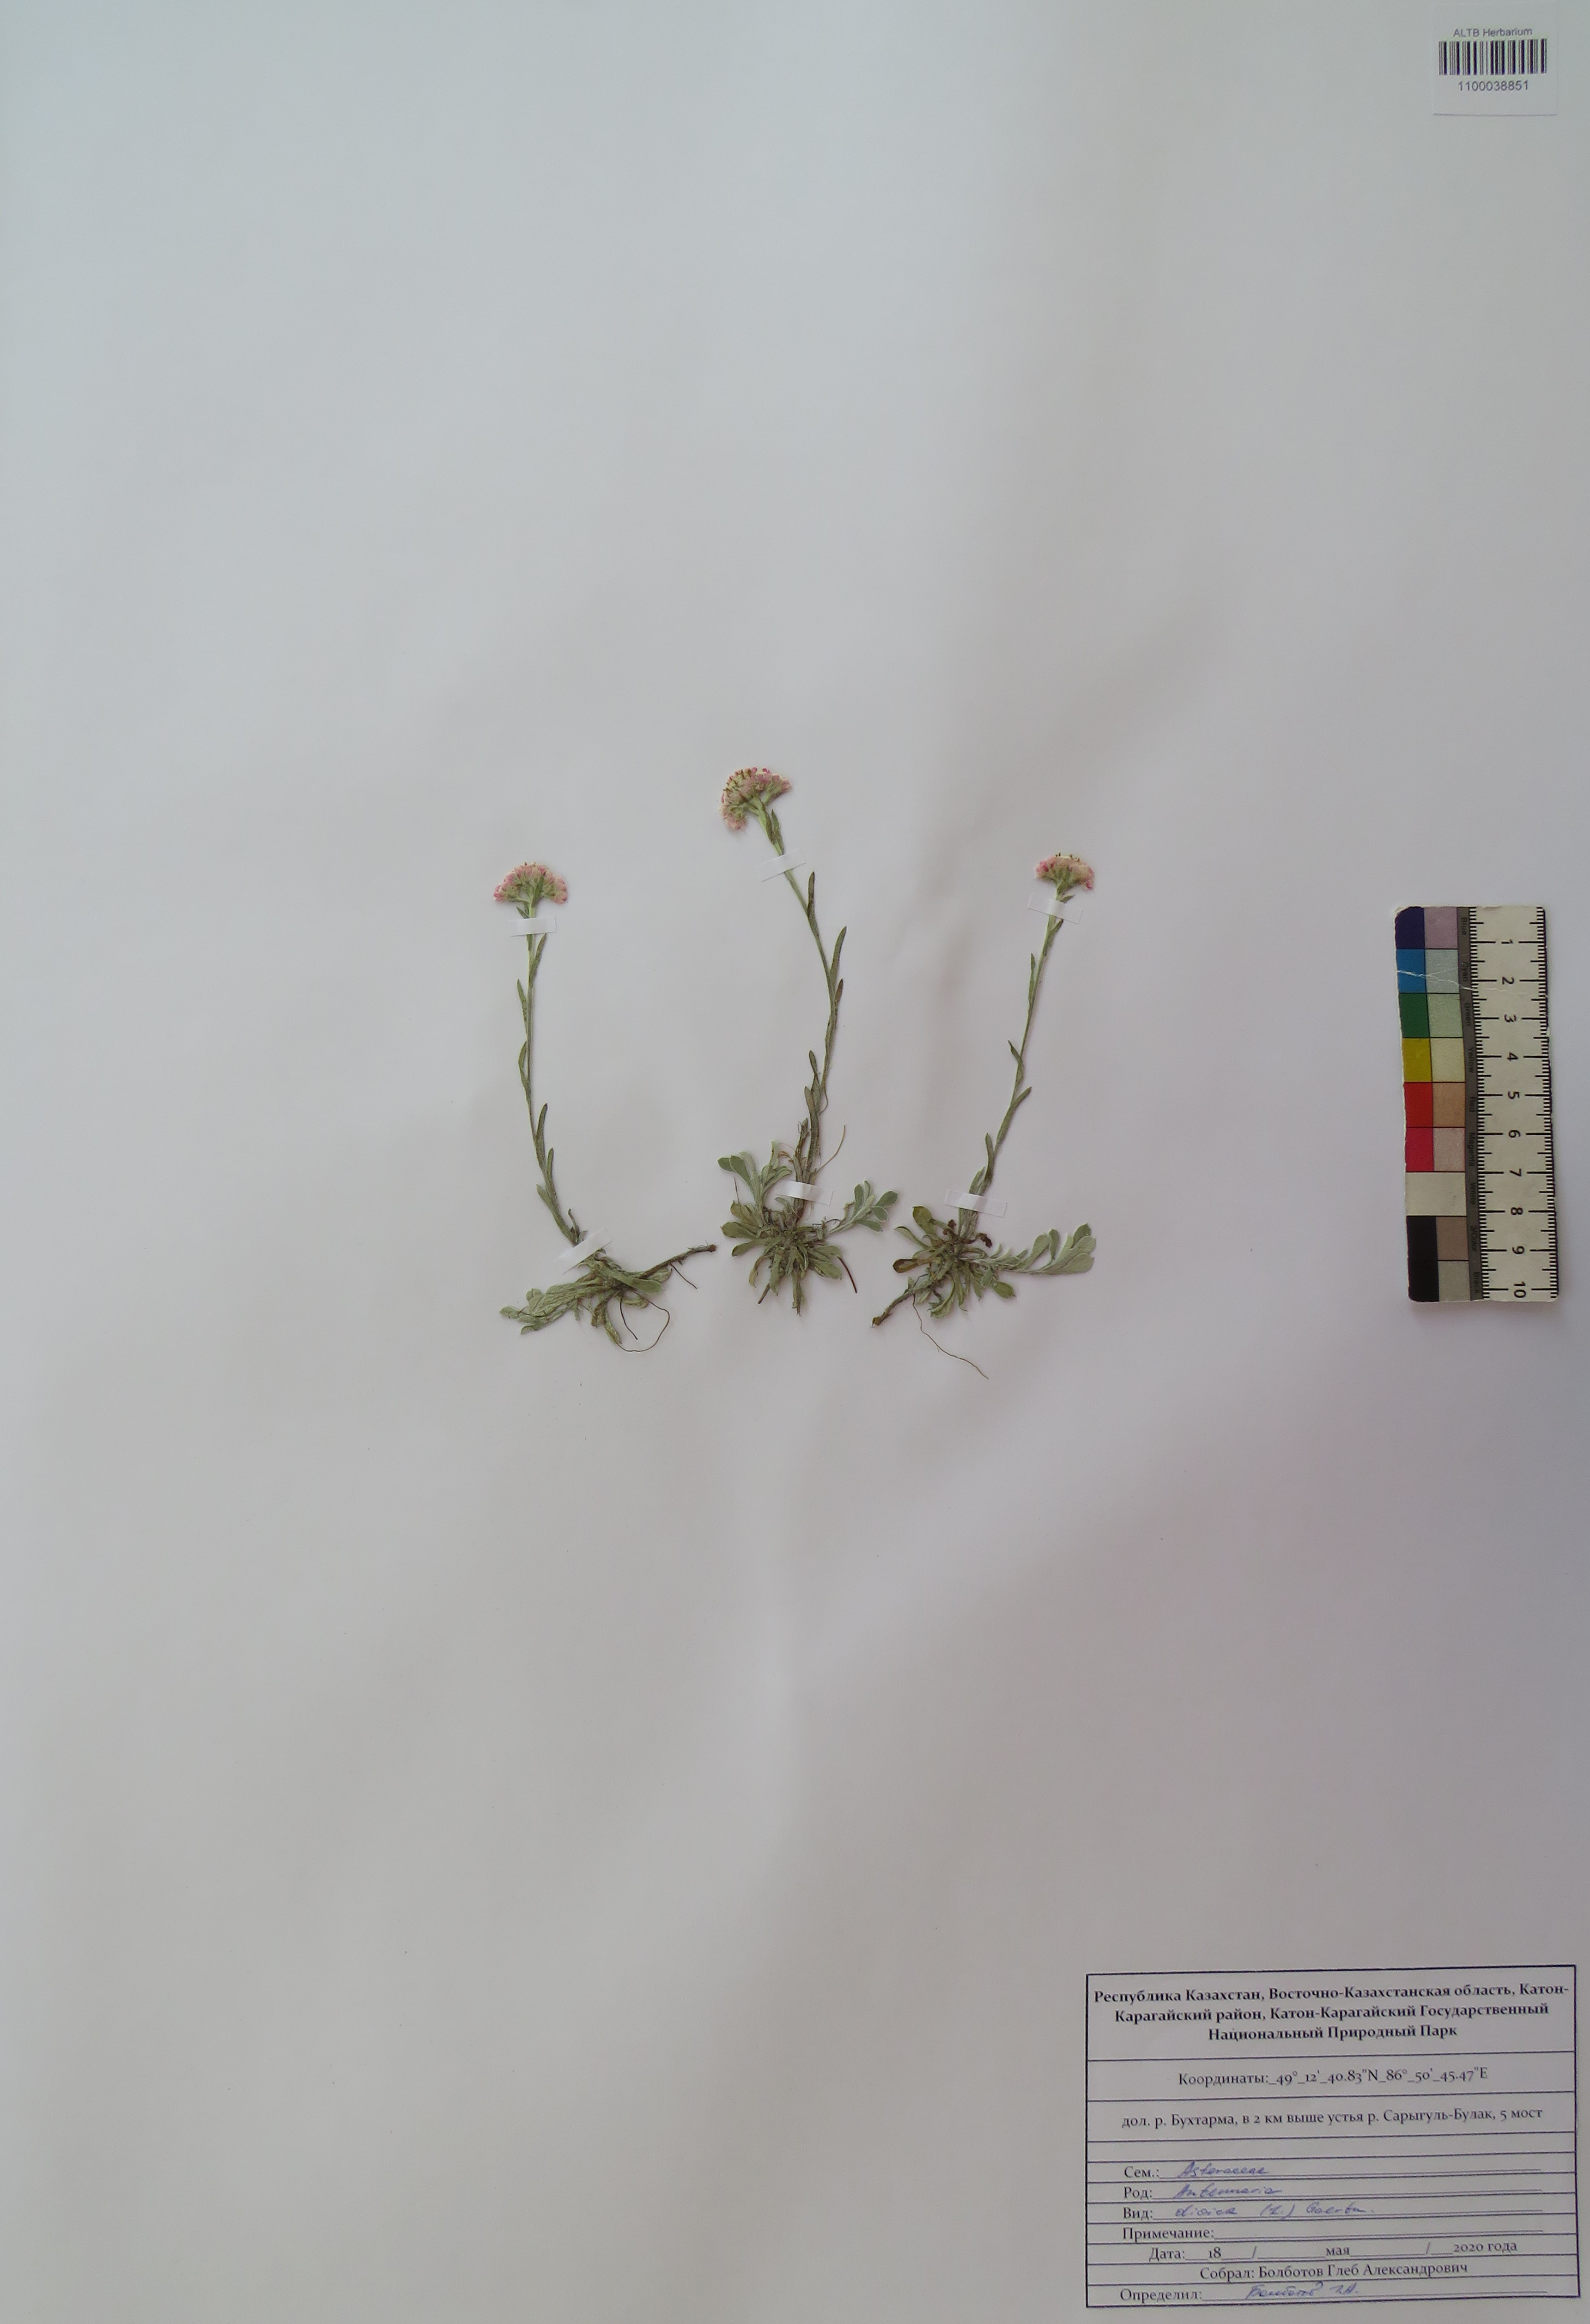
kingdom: Plantae
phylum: Tracheophyta
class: Magnoliopsida
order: Asterales
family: Asteraceae
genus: Antennaria
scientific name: Antennaria dioica
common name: Mountain everlasting
